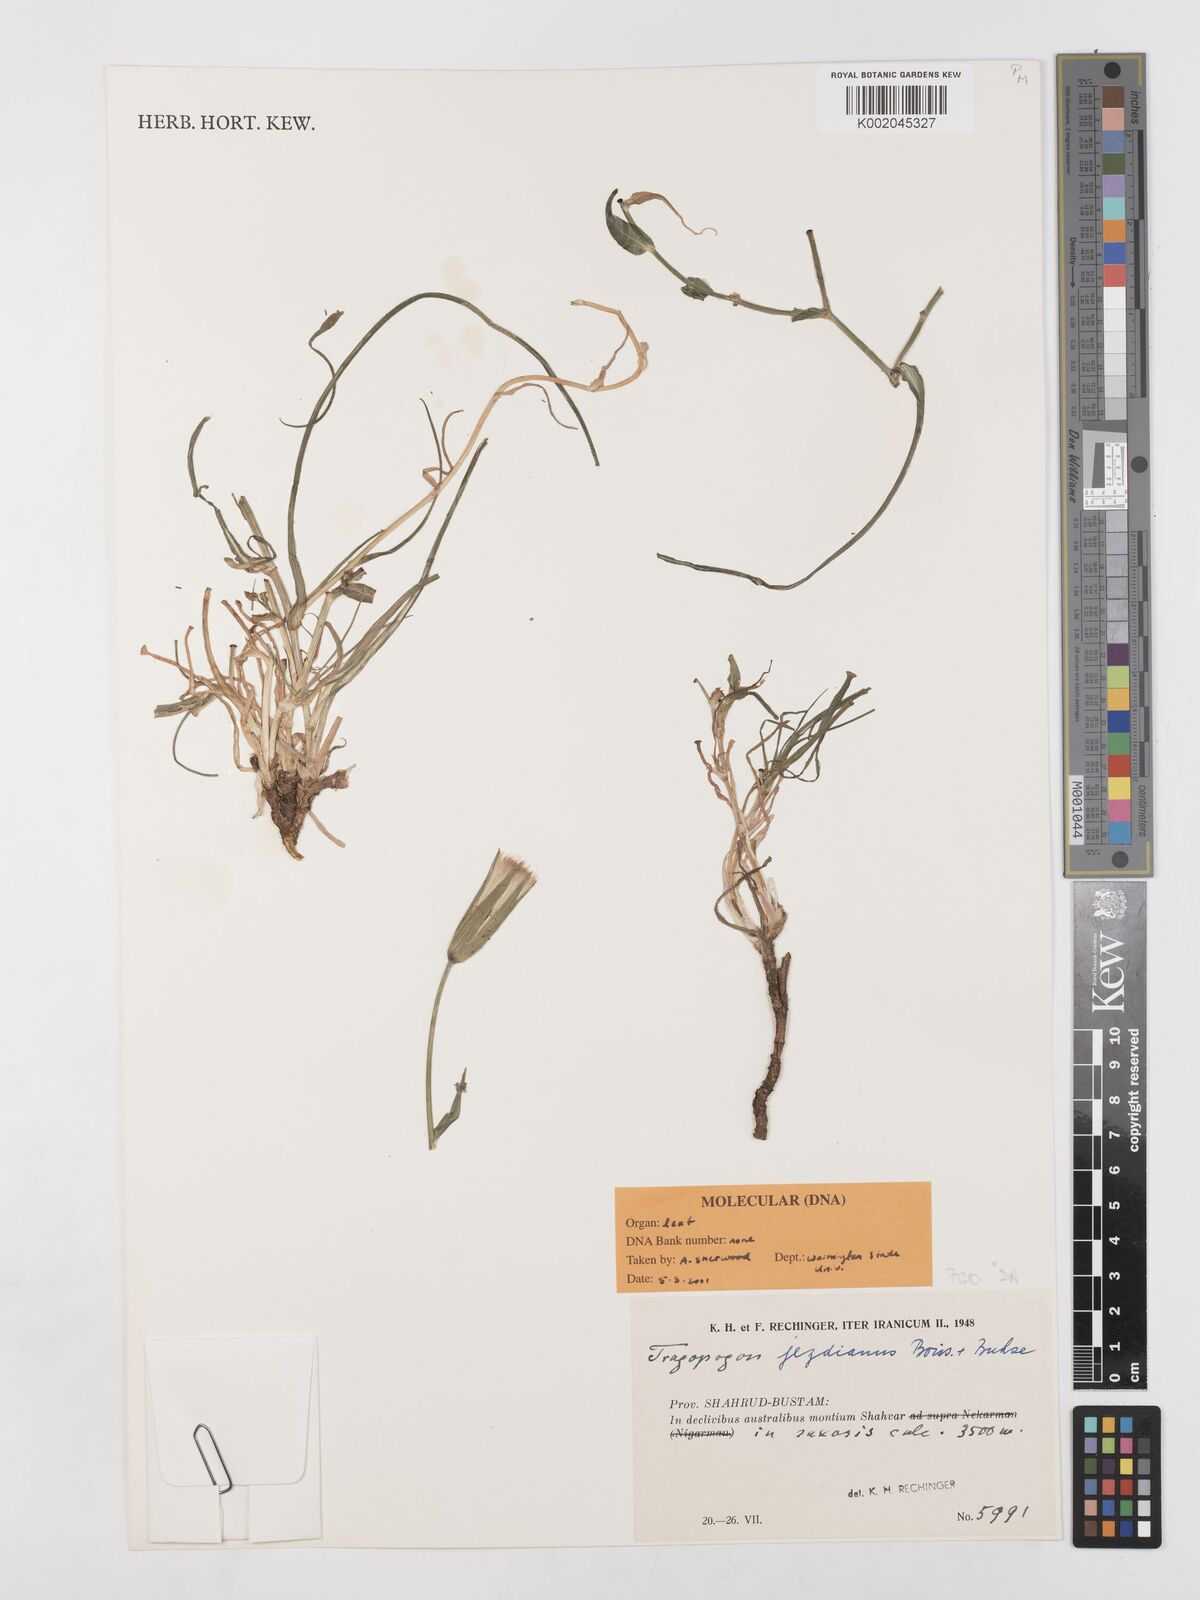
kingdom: Plantae
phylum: Tracheophyta
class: Magnoliopsida
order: Asterales
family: Asteraceae
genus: Tragopogon
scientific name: Tragopogon jesdianus
